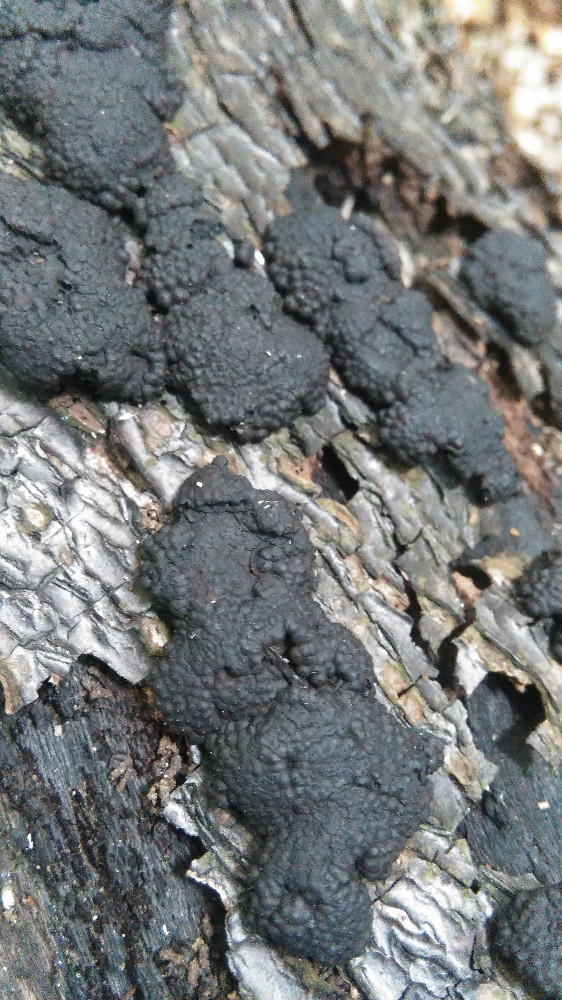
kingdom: Fungi
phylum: Ascomycota
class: Sordariomycetes
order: Xylariales
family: Hypoxylaceae
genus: Jackrogersella
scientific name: Jackrogersella
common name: kulbær
